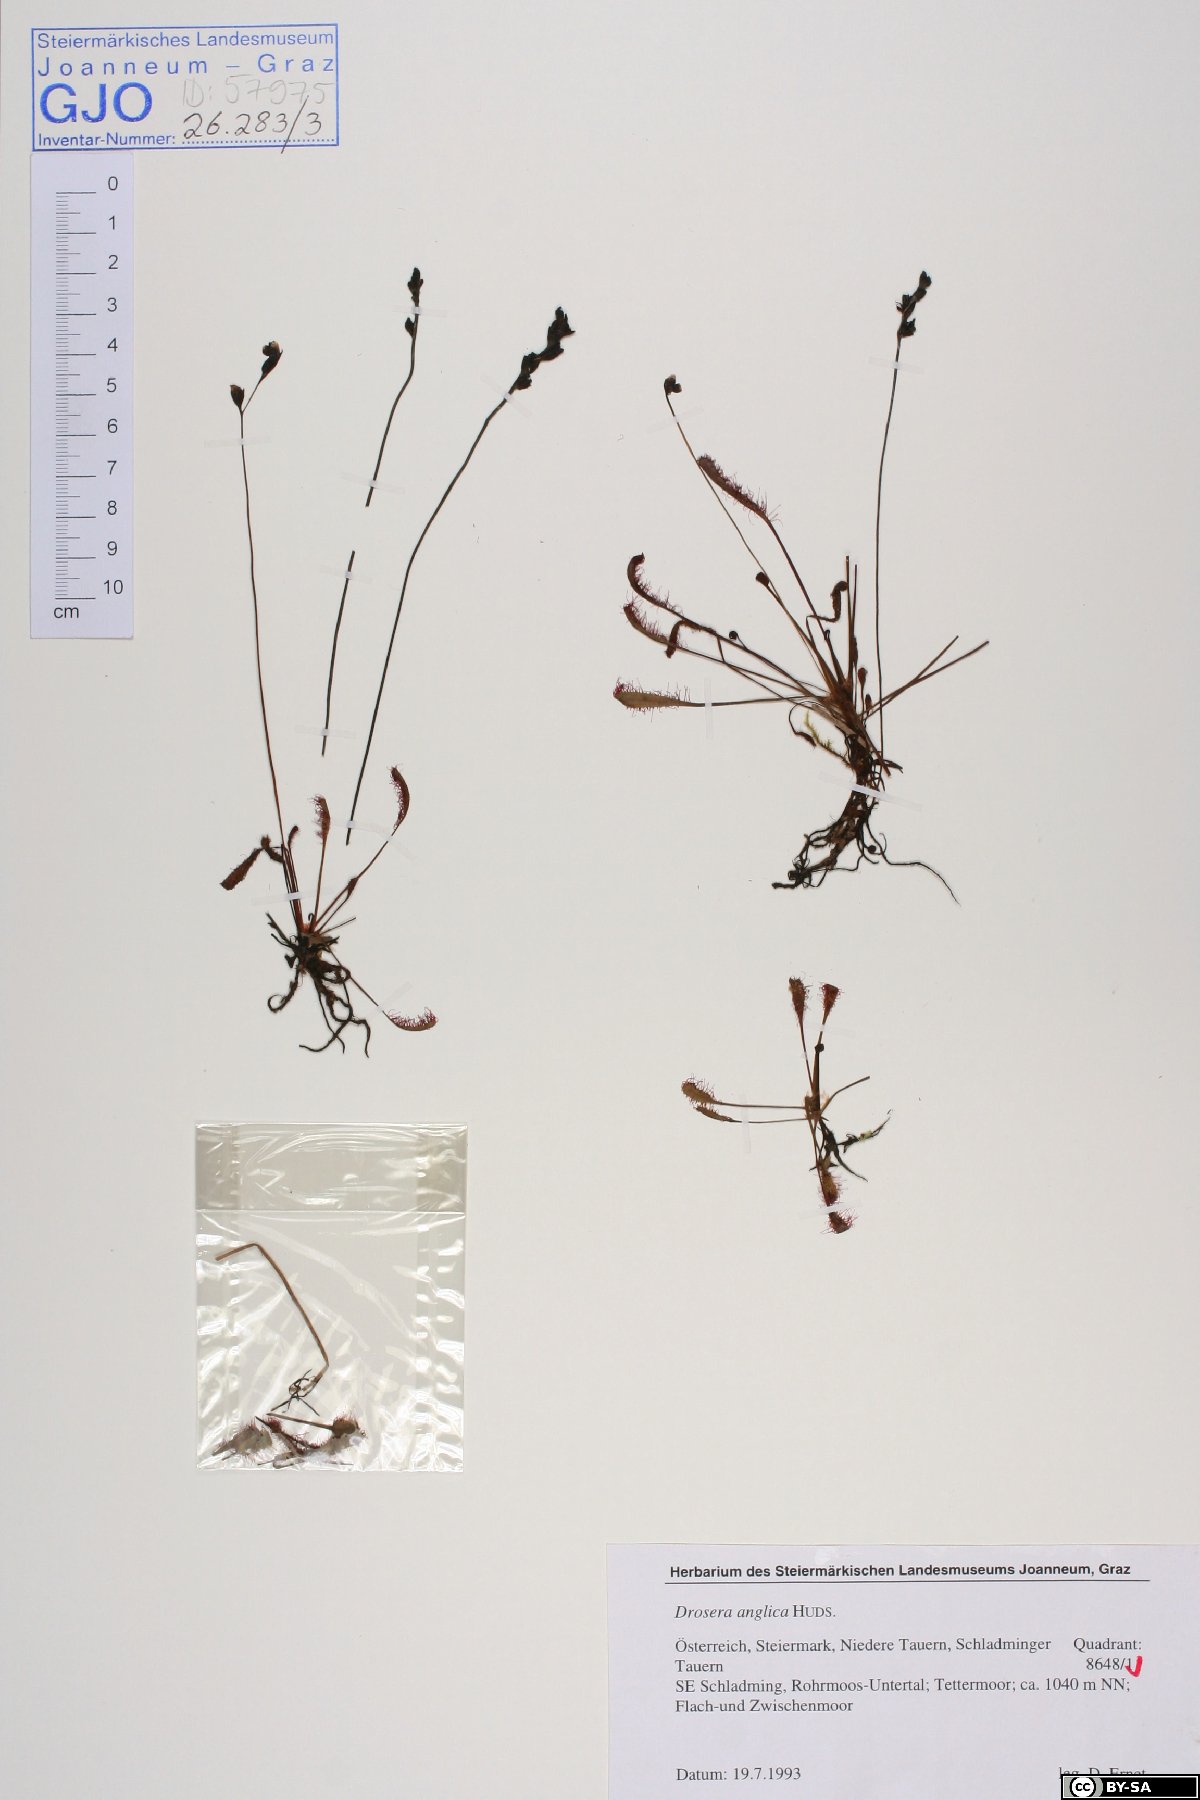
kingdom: Plantae
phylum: Tracheophyta
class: Magnoliopsida
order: Caryophyllales
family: Droseraceae
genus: Drosera
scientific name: Drosera anglica
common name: Great sundew
